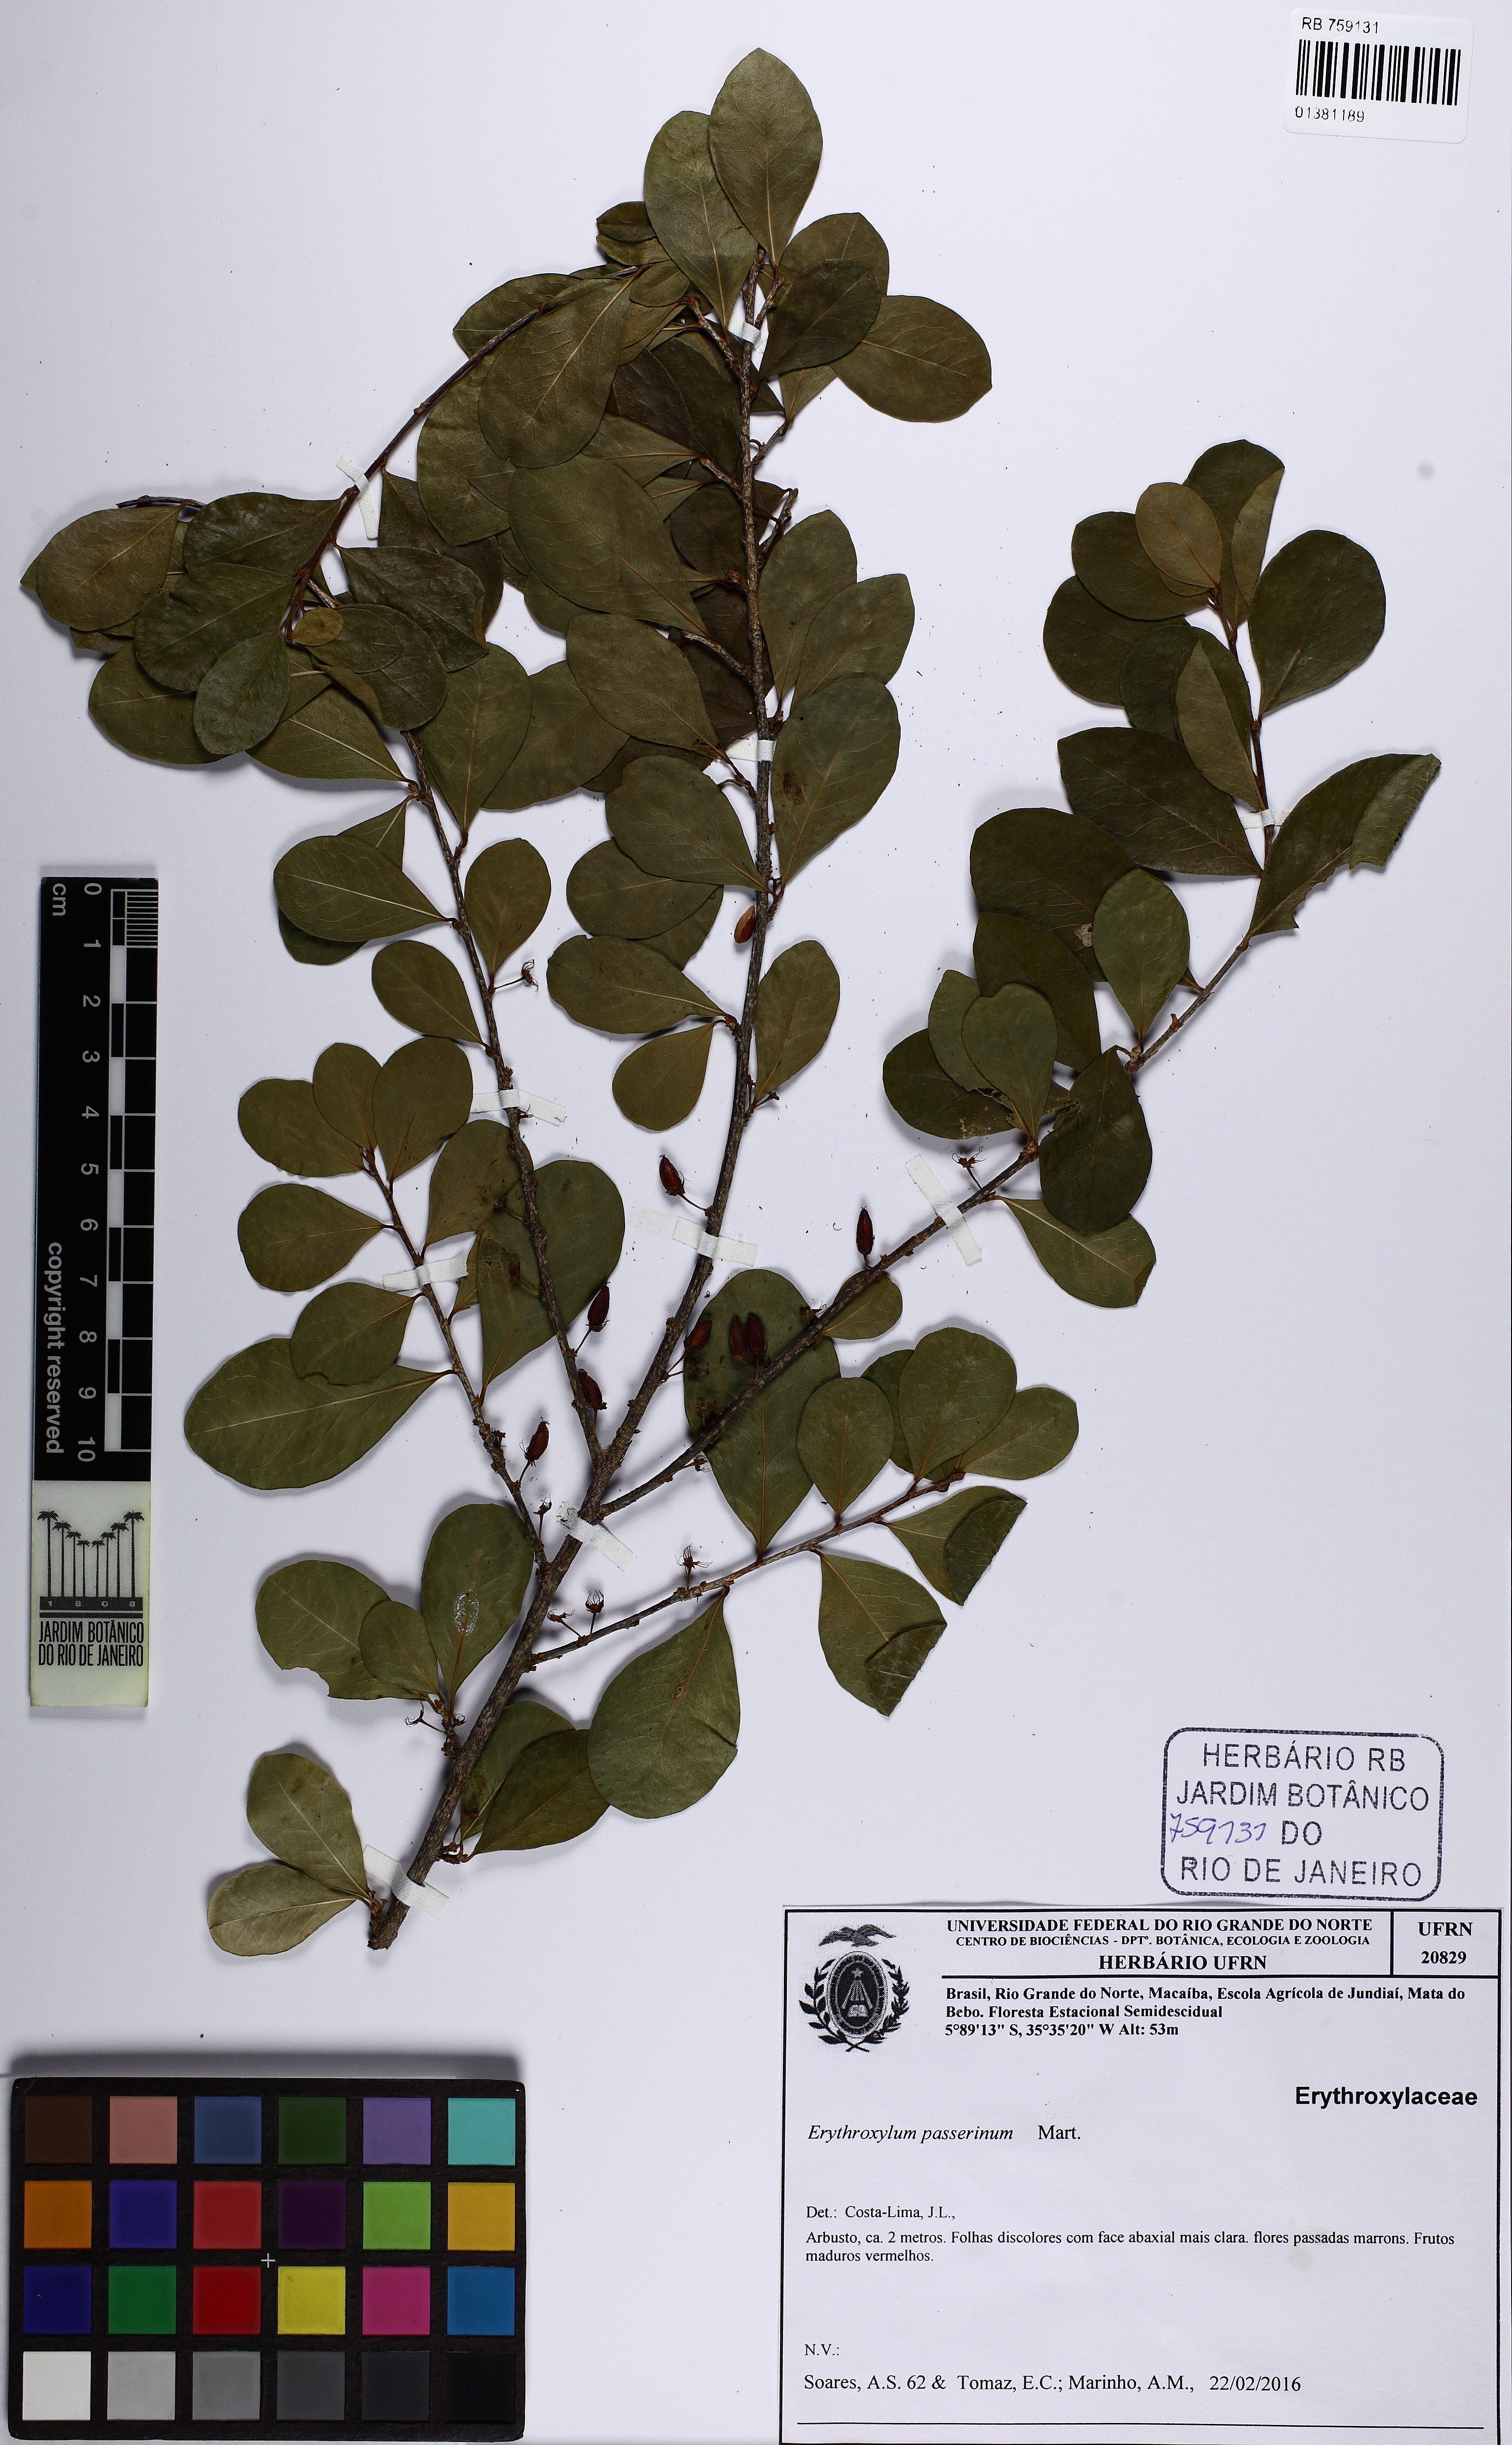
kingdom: Plantae
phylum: Tracheophyta
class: Magnoliopsida
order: Malpighiales
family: Erythroxylaceae
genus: Erythroxylum
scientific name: Erythroxylum passerinum
